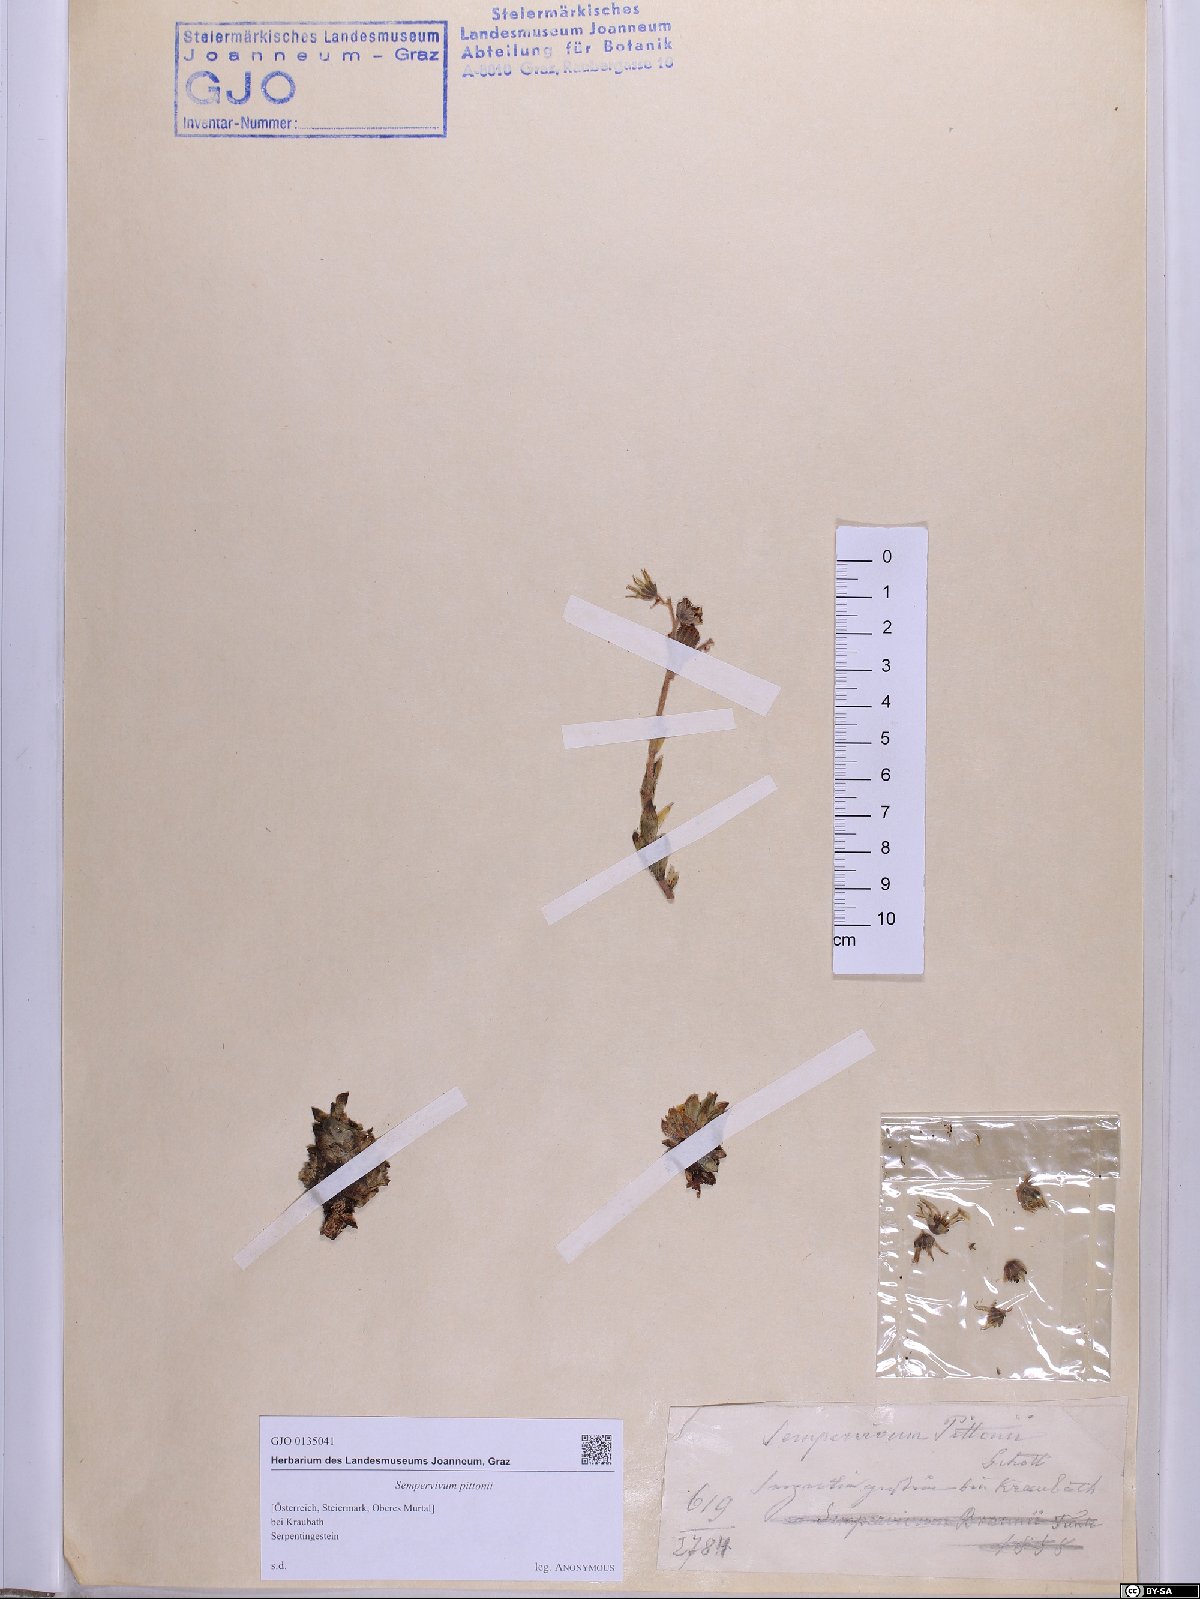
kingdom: Plantae
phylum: Tracheophyta
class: Magnoliopsida
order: Saxifragales
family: Crassulaceae
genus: Sempervivum
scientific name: Sempervivum pittonii
